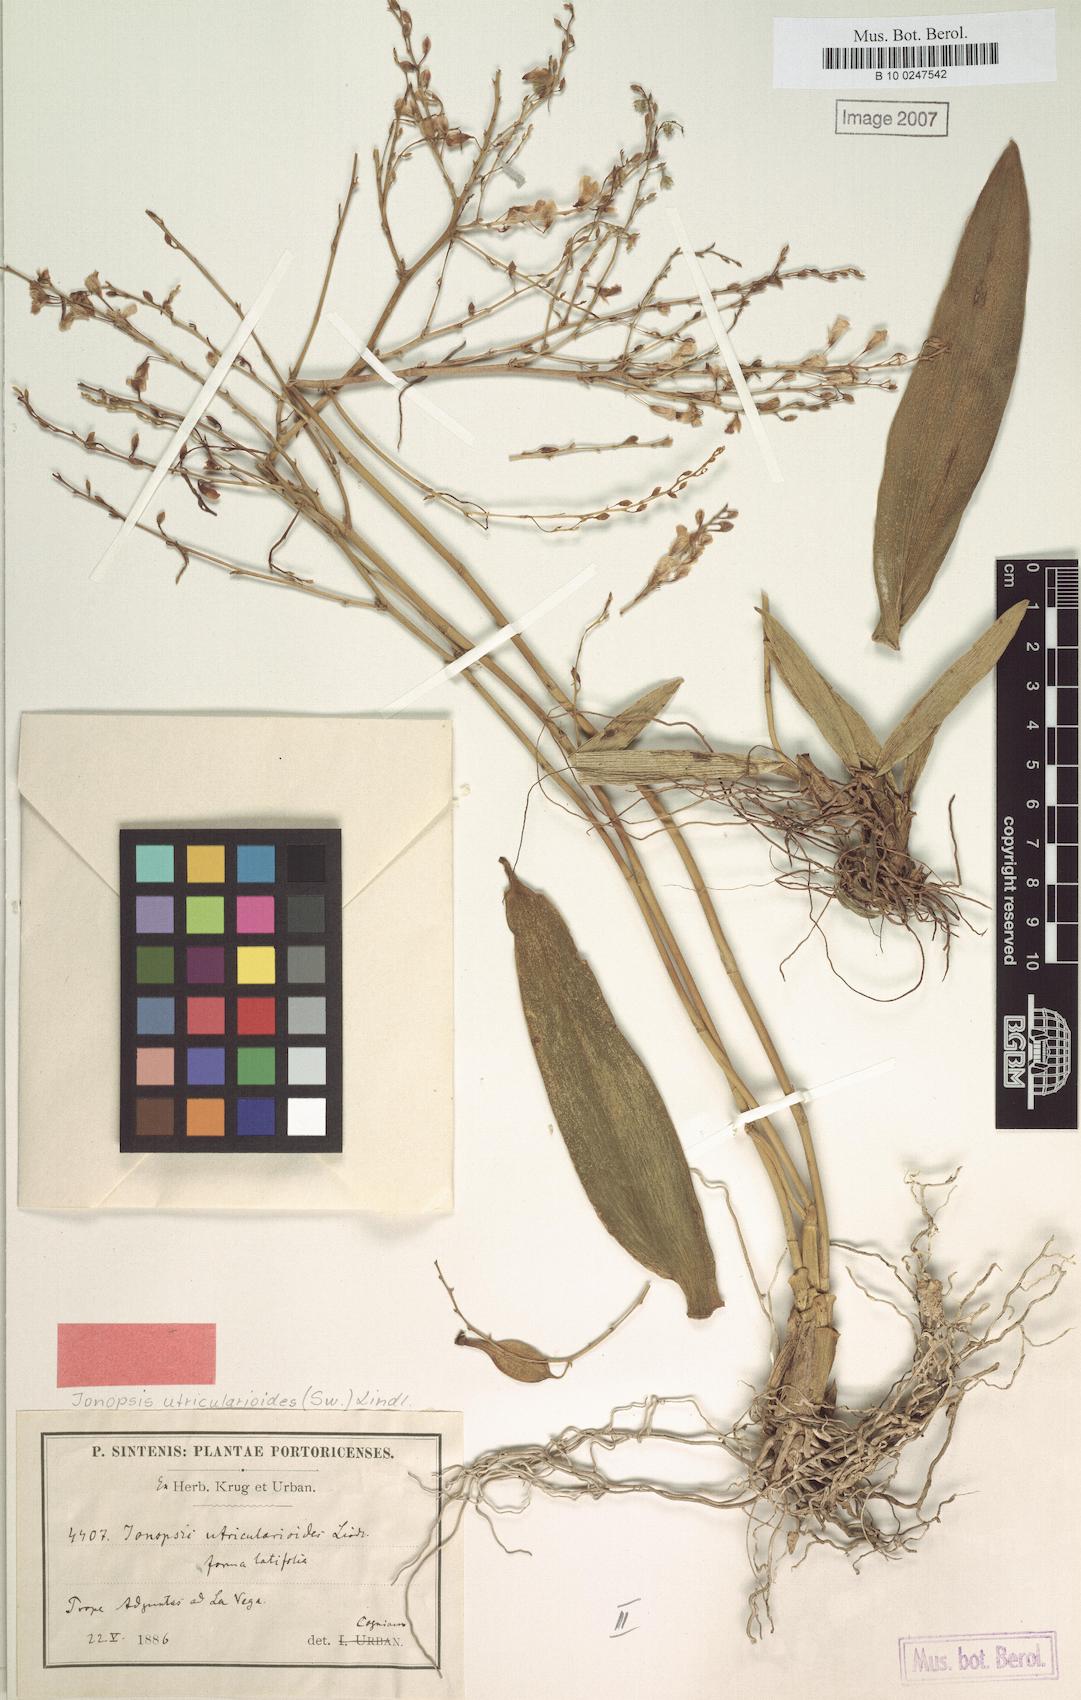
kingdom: Plantae
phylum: Tracheophyta
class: Liliopsida
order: Asparagales
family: Orchidaceae
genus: Ionopsis
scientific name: Ionopsis utricularioides
